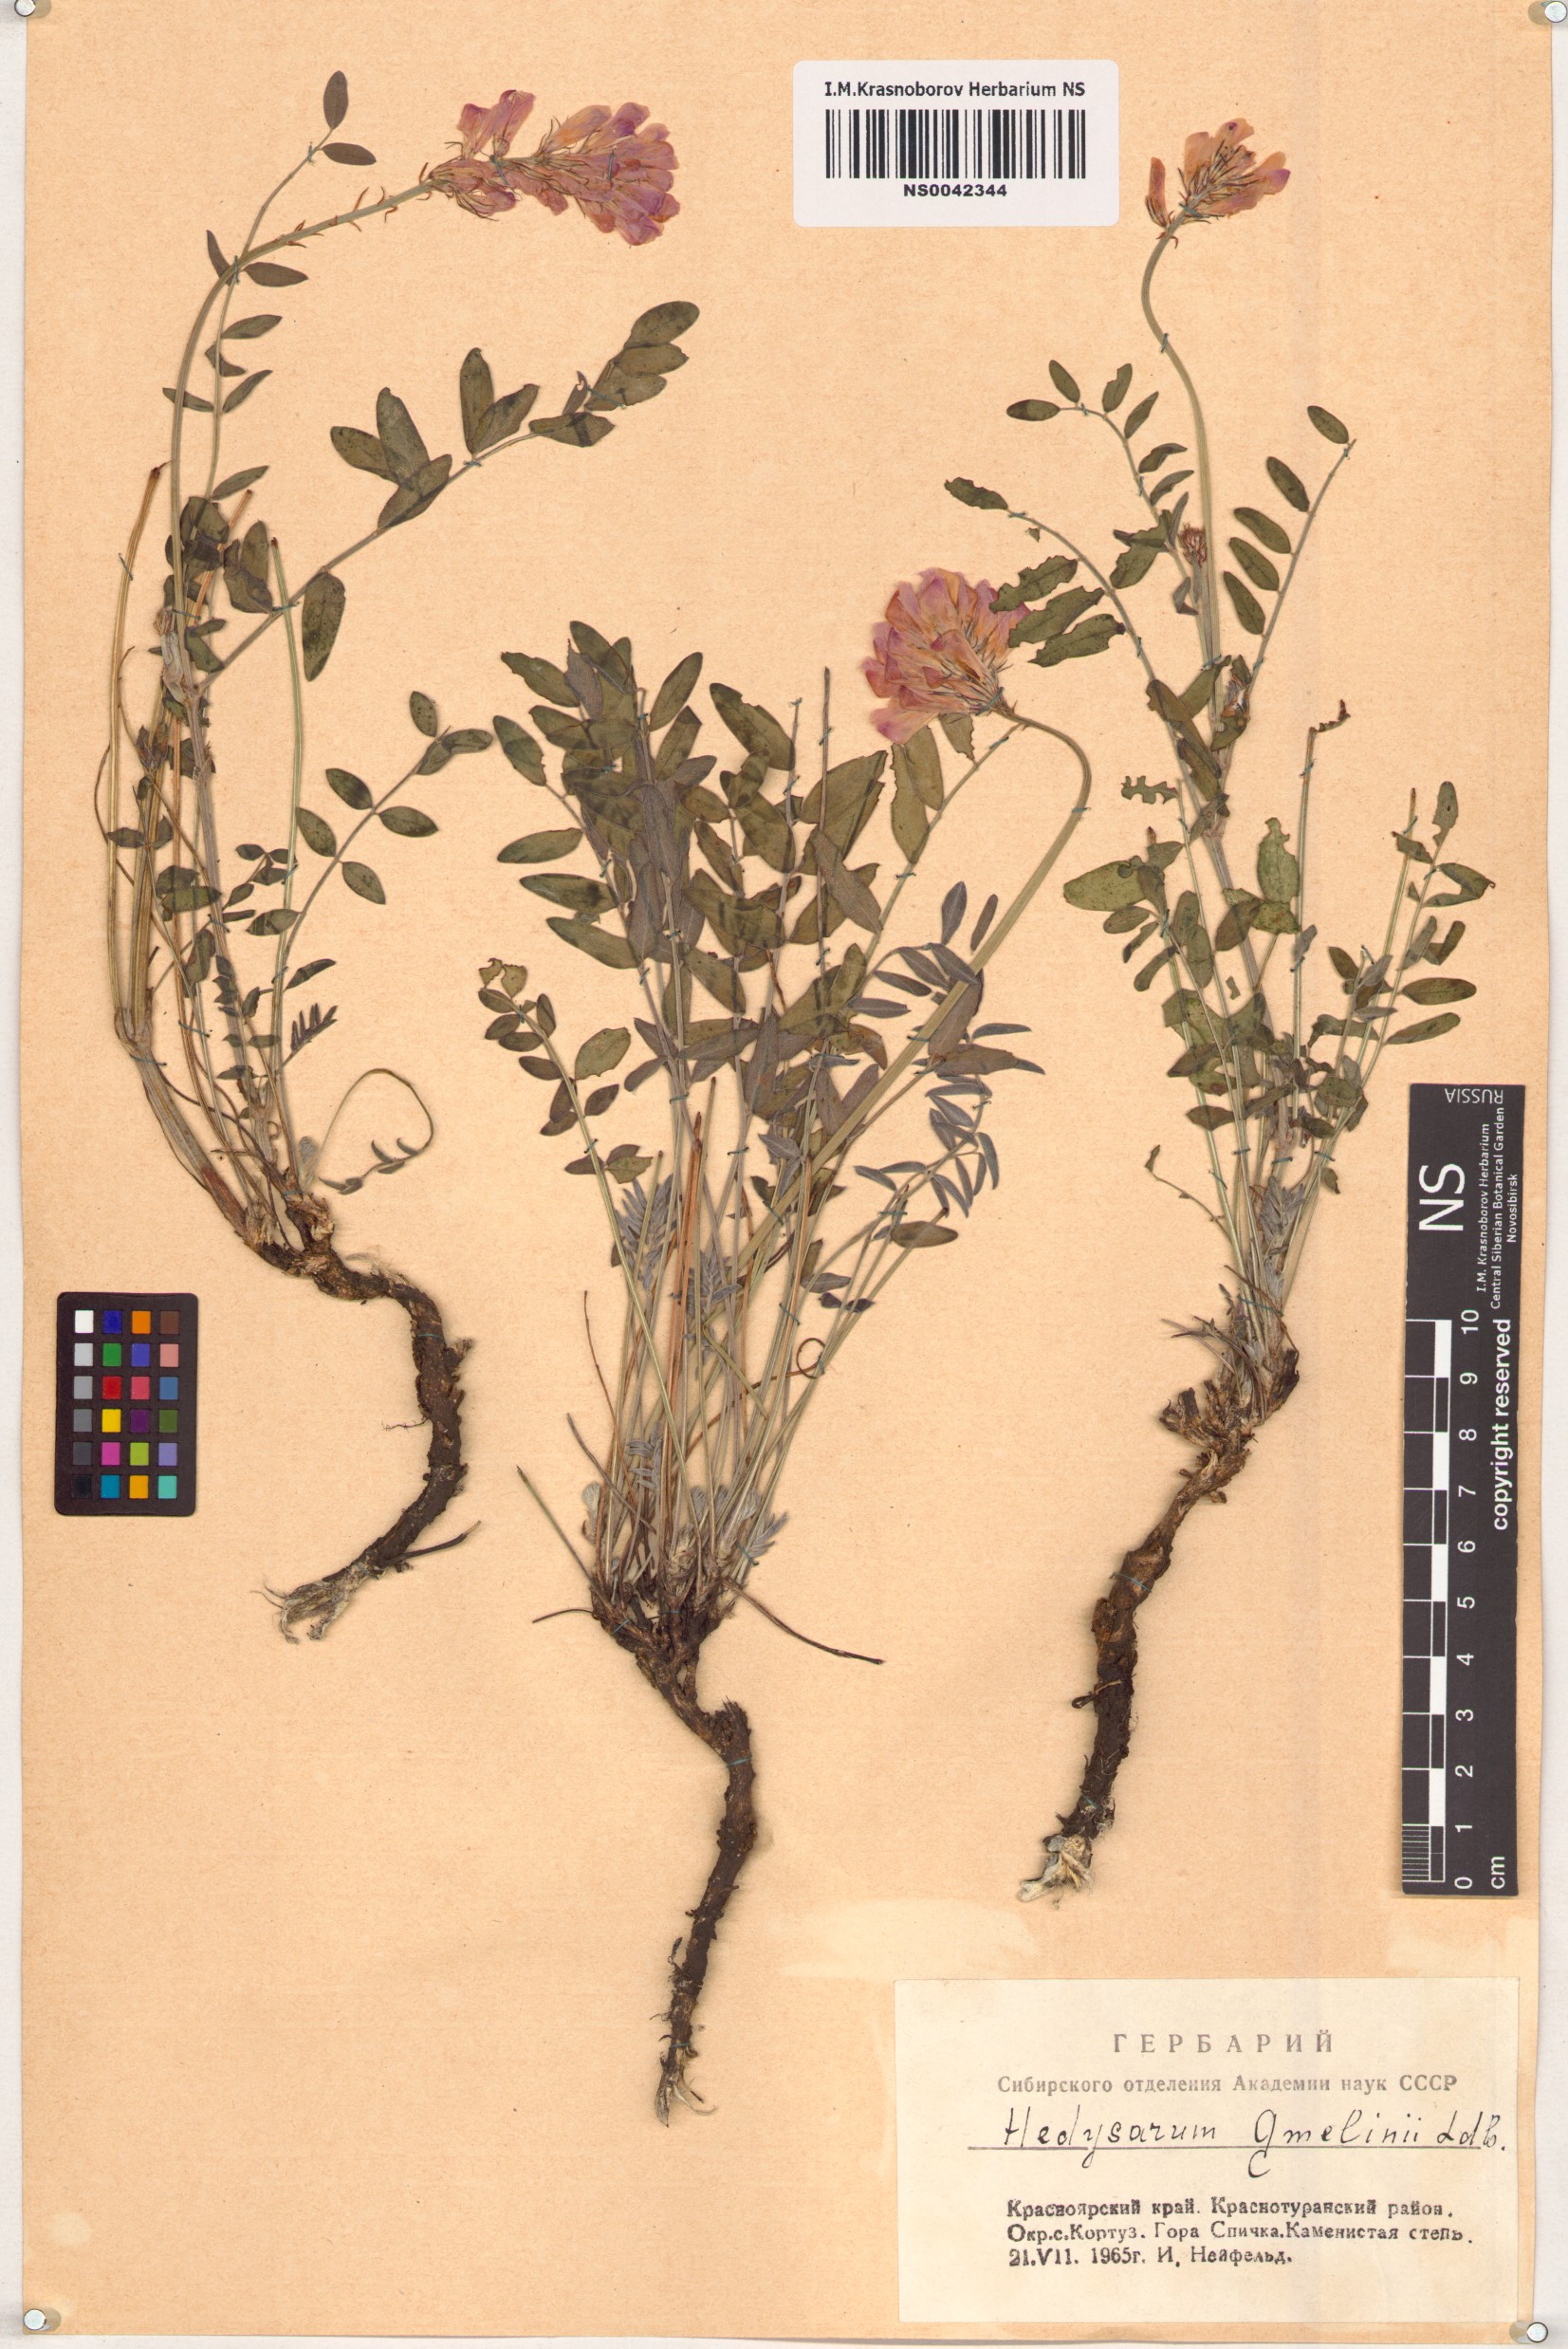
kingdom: Plantae
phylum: Tracheophyta
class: Magnoliopsida
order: Fabales
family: Fabaceae
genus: Hedysarum
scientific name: Hedysarum gmelinii
